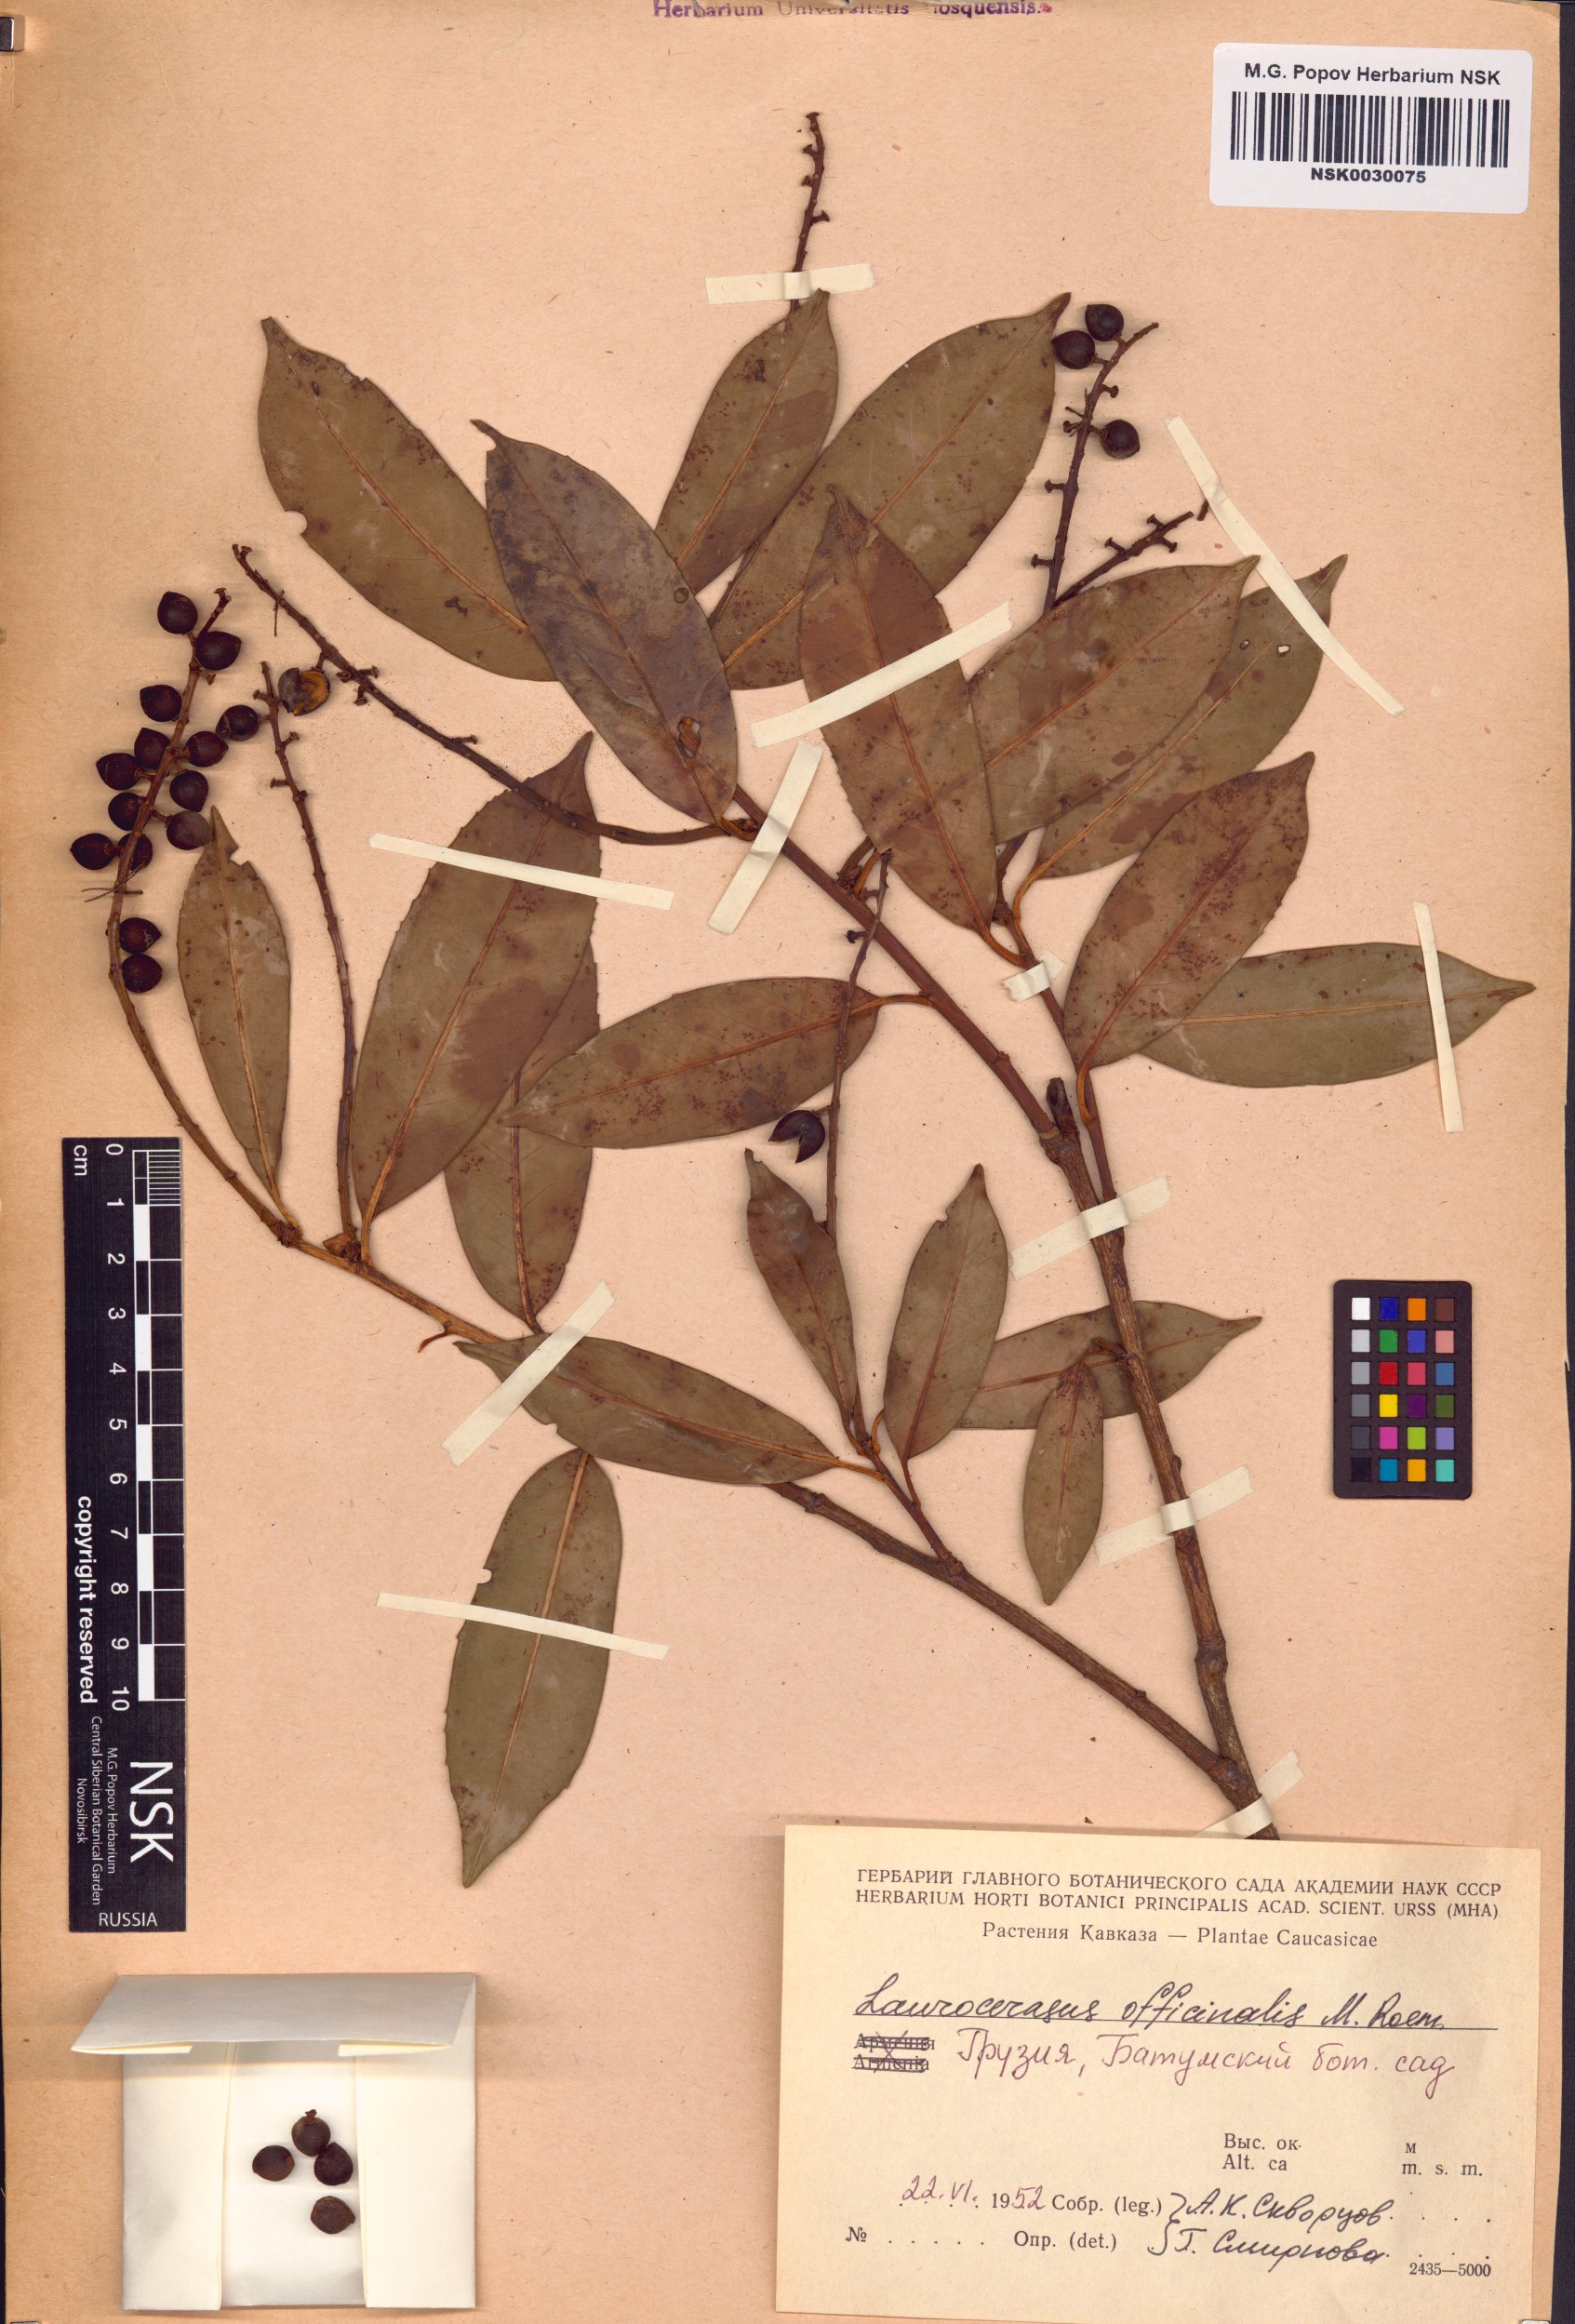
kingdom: Plantae
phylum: Tracheophyta
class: Magnoliopsida
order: Rosales
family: Rosaceae
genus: Prunus
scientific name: Prunus laurocerasus
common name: Cherry laurel
